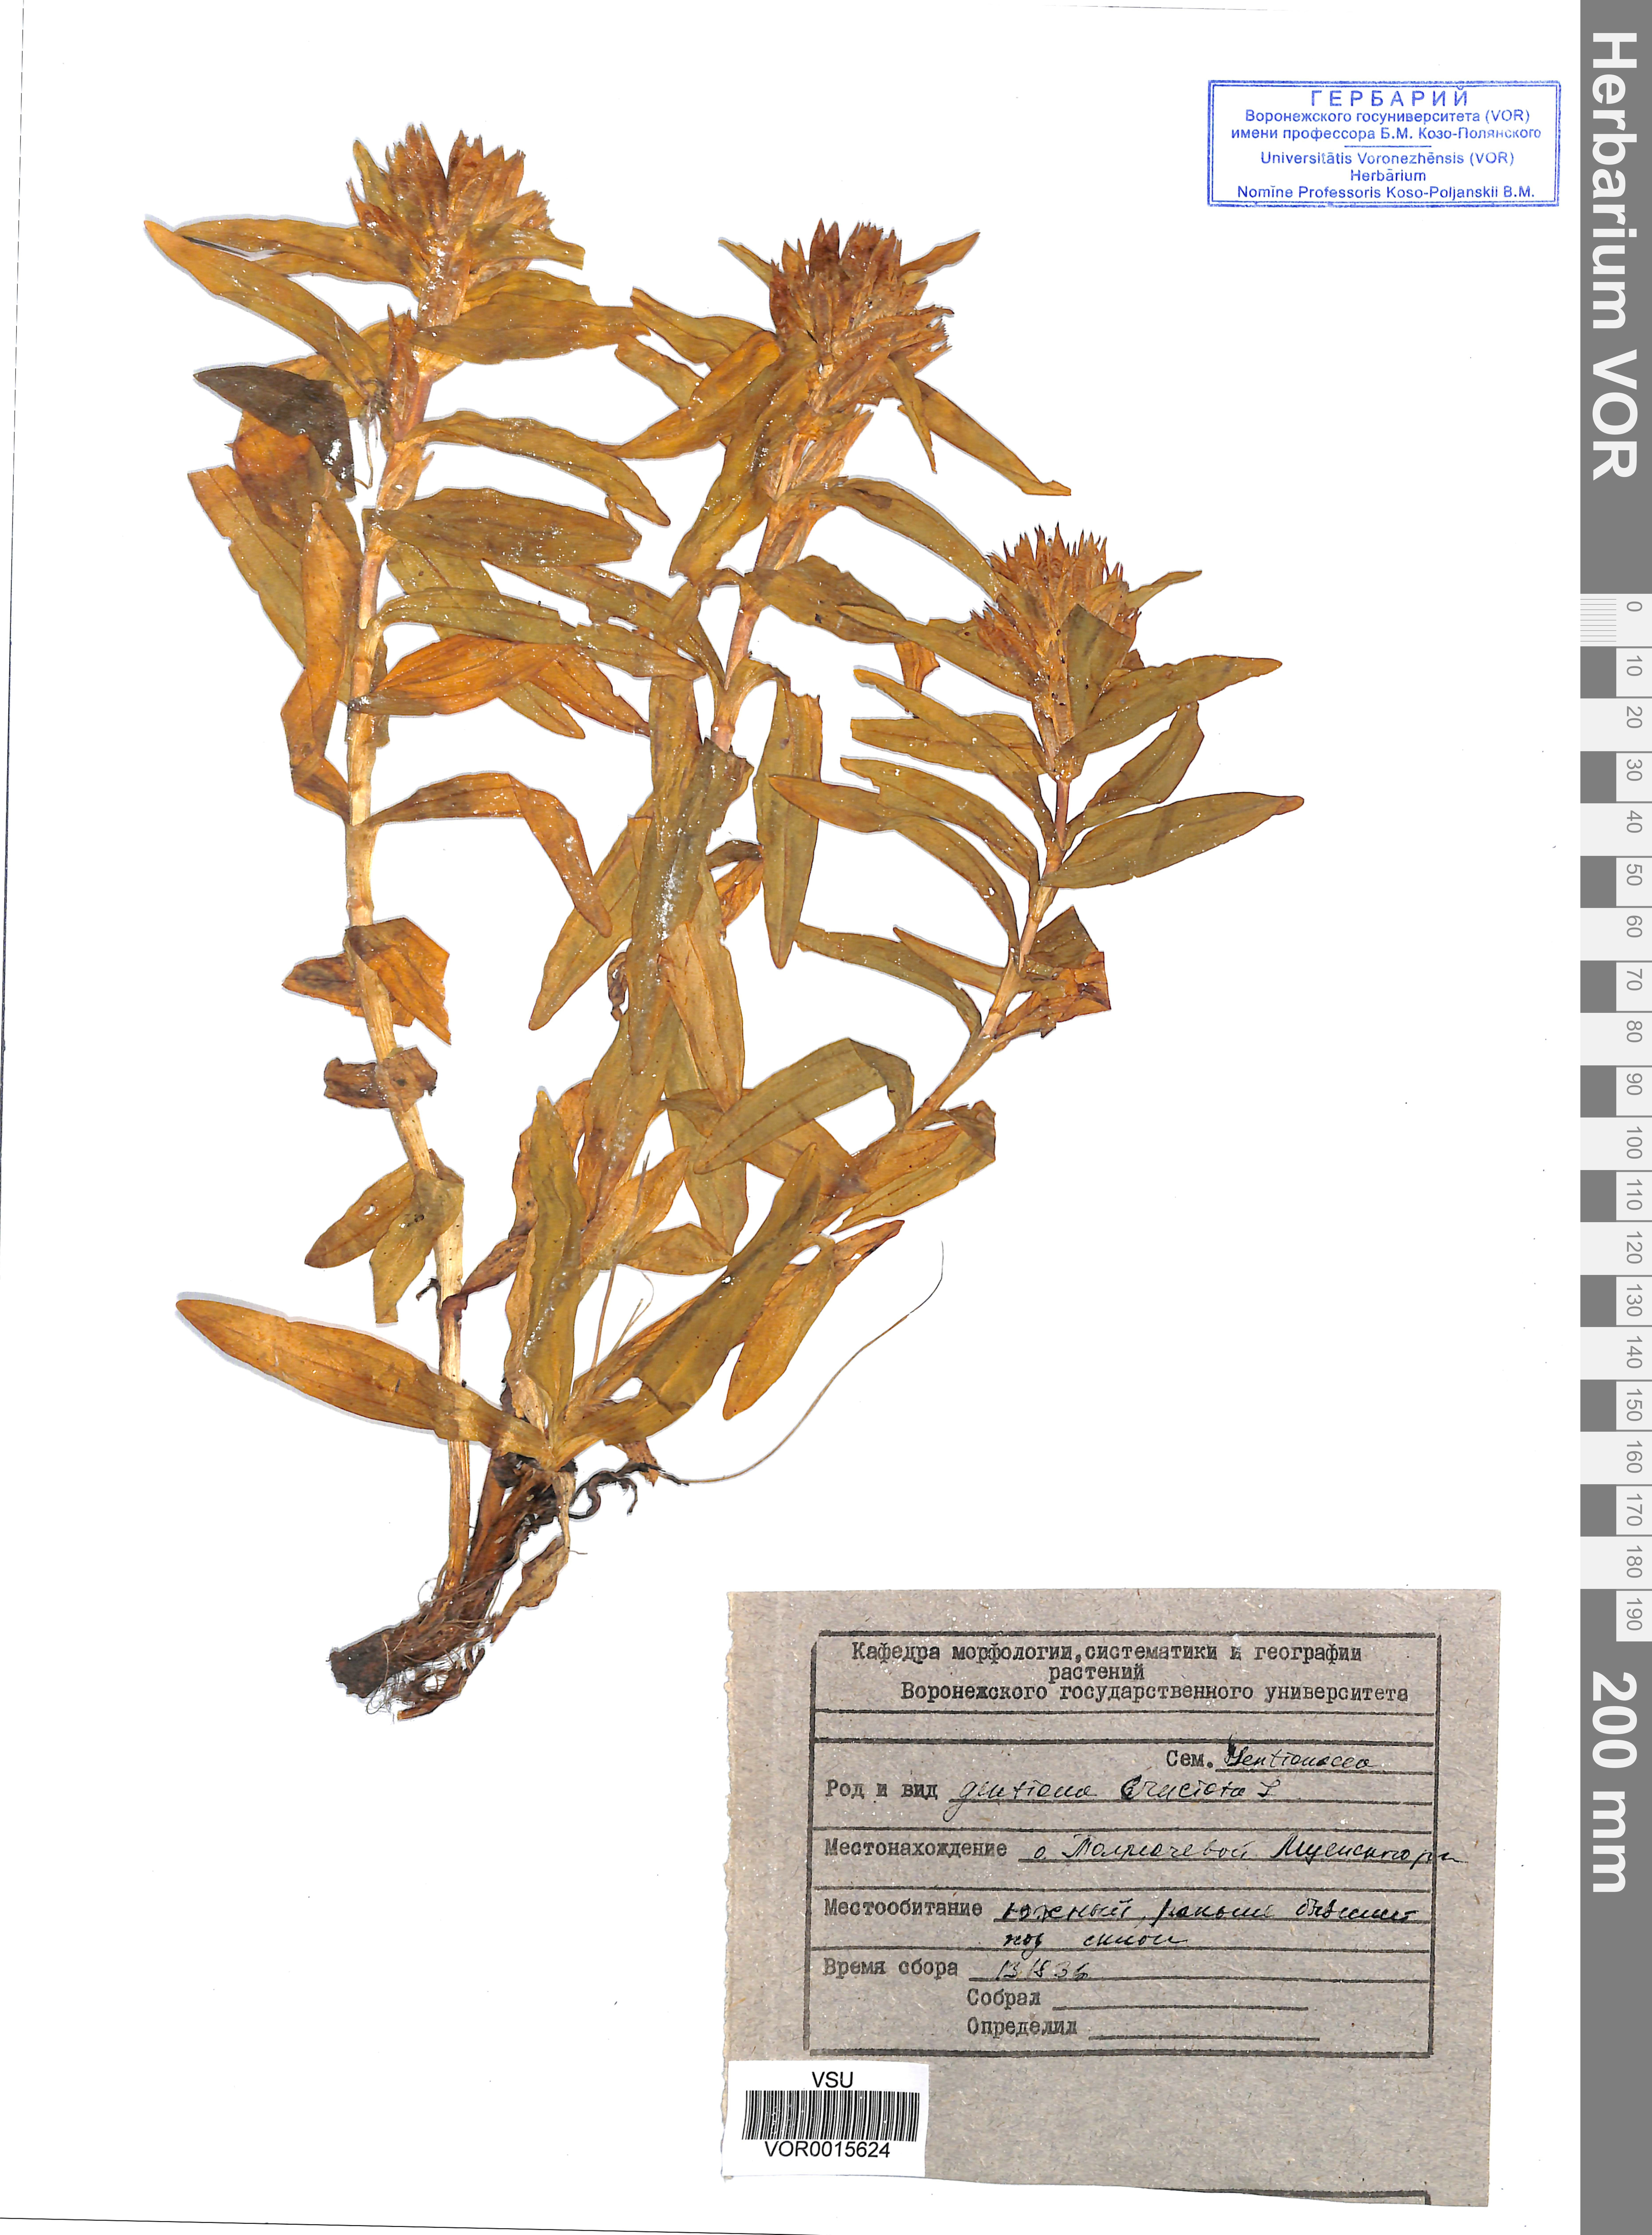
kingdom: Plantae
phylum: Tracheophyta
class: Magnoliopsida
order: Gentianales
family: Gentianaceae
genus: Gentiana
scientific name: Gentiana cruciata
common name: Cross gentian
